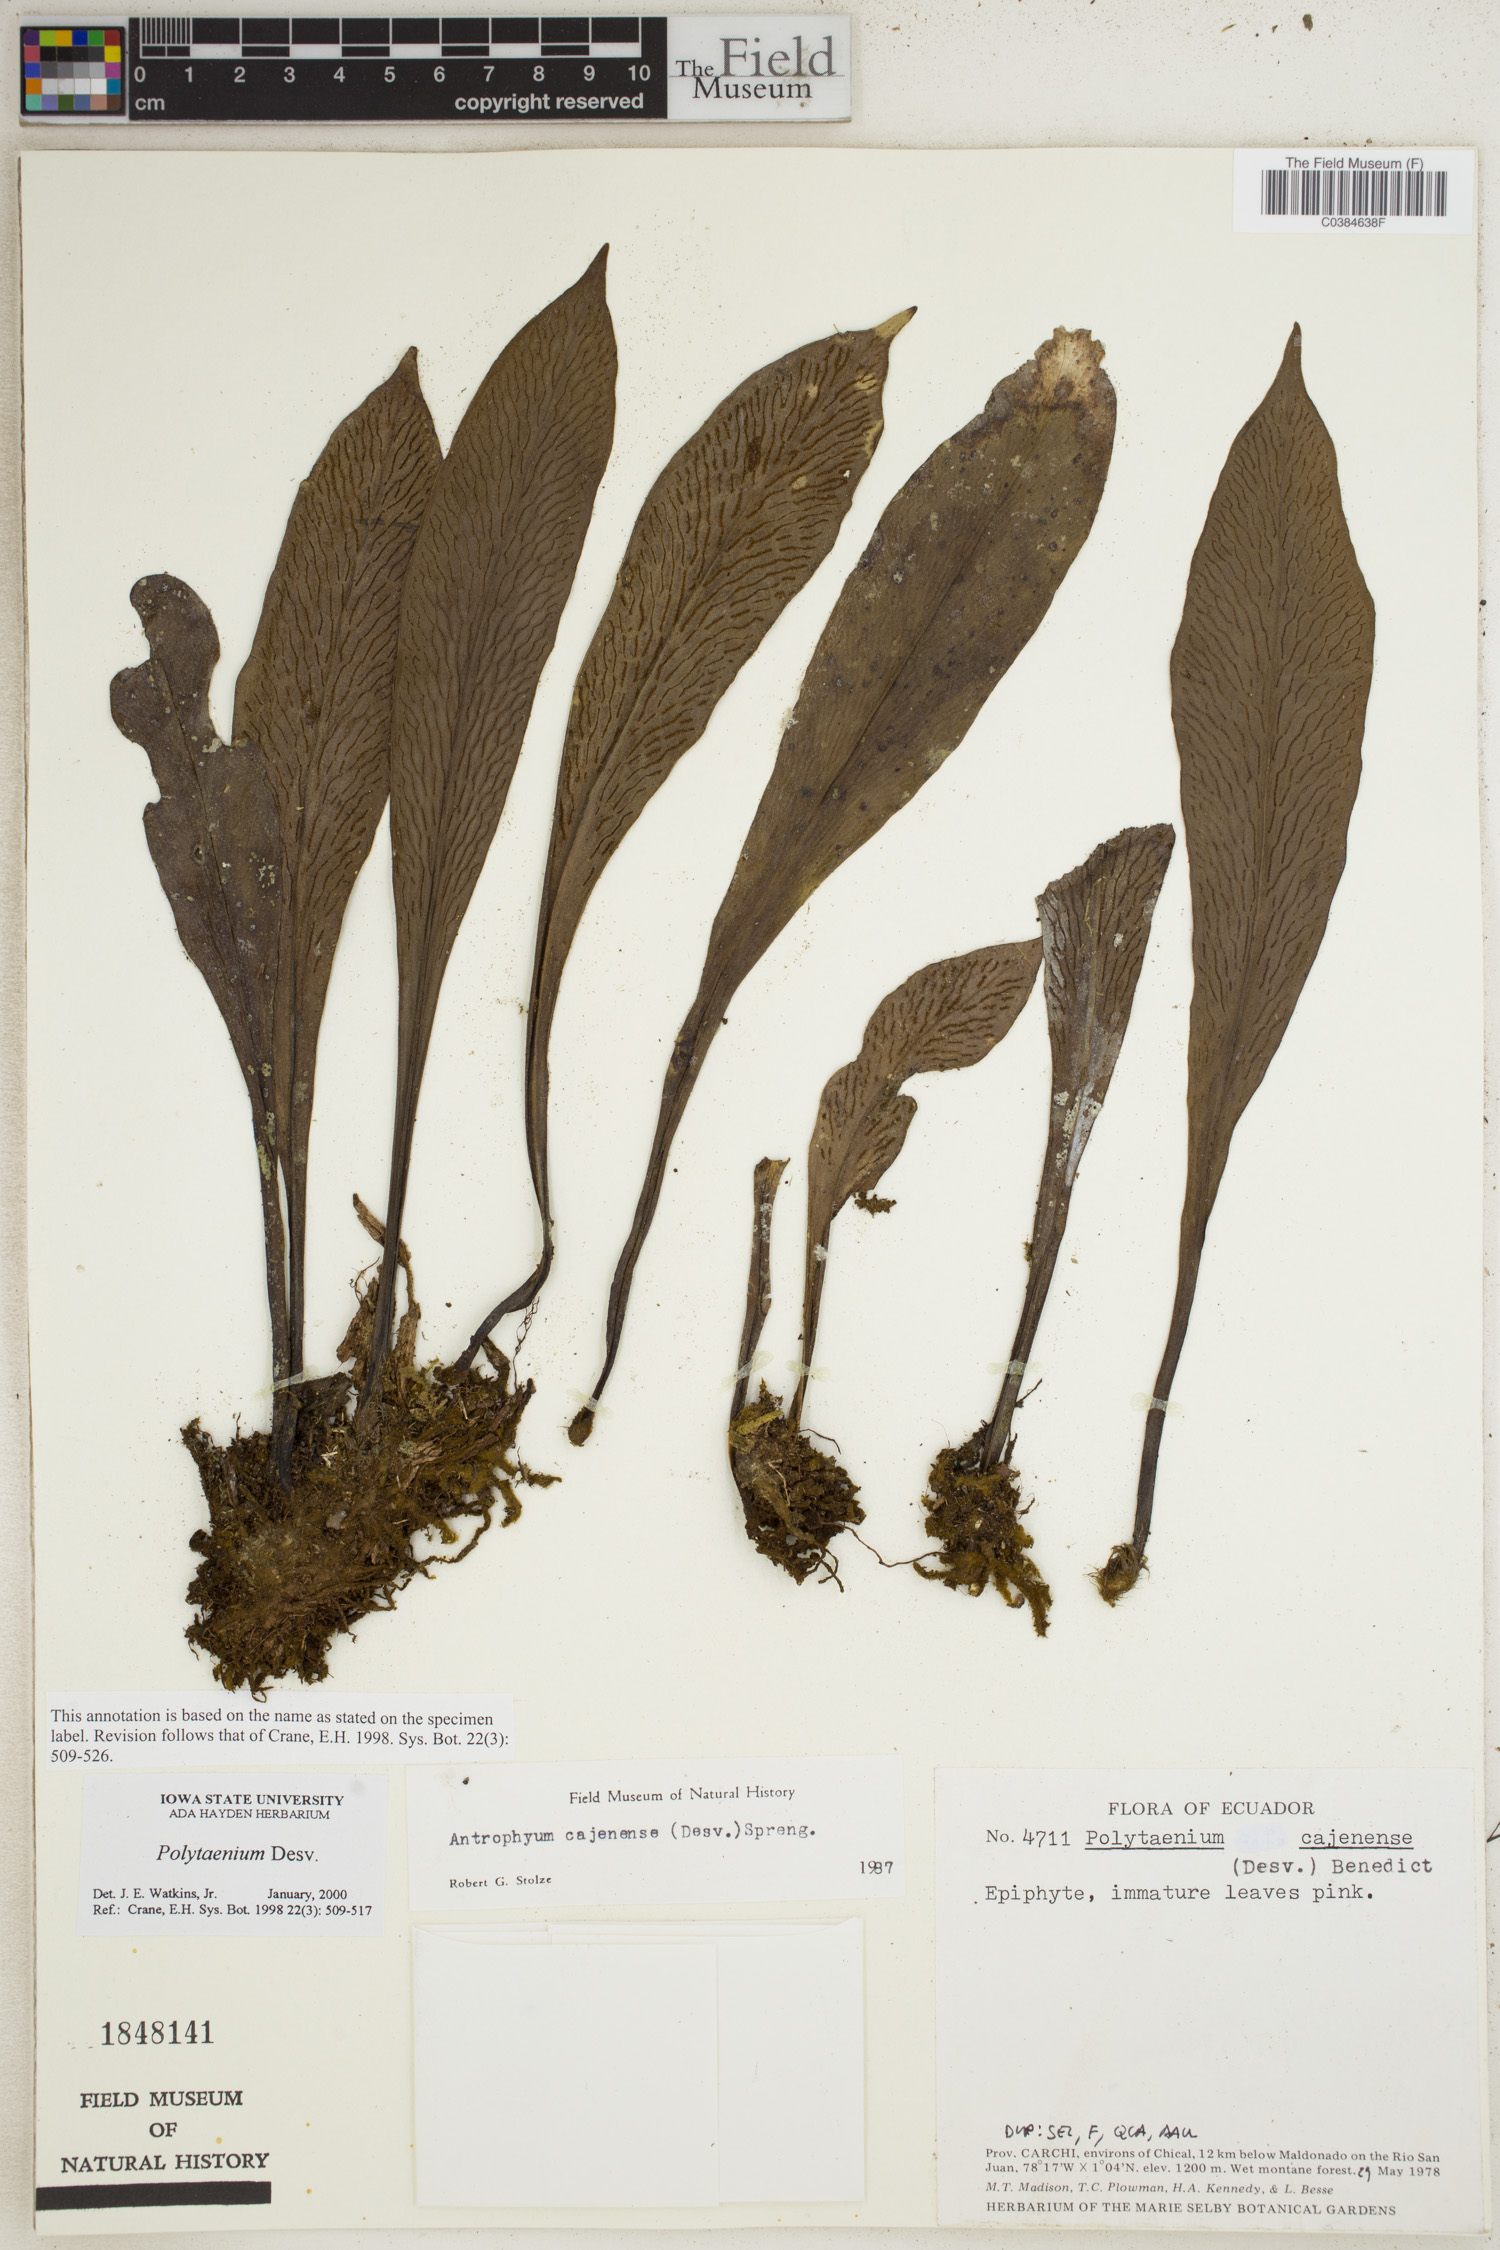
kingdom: Plantae
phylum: Tracheophyta
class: Polypodiopsida
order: Polypodiales
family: Pteridaceae
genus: Polytaenium
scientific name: Polytaenium
